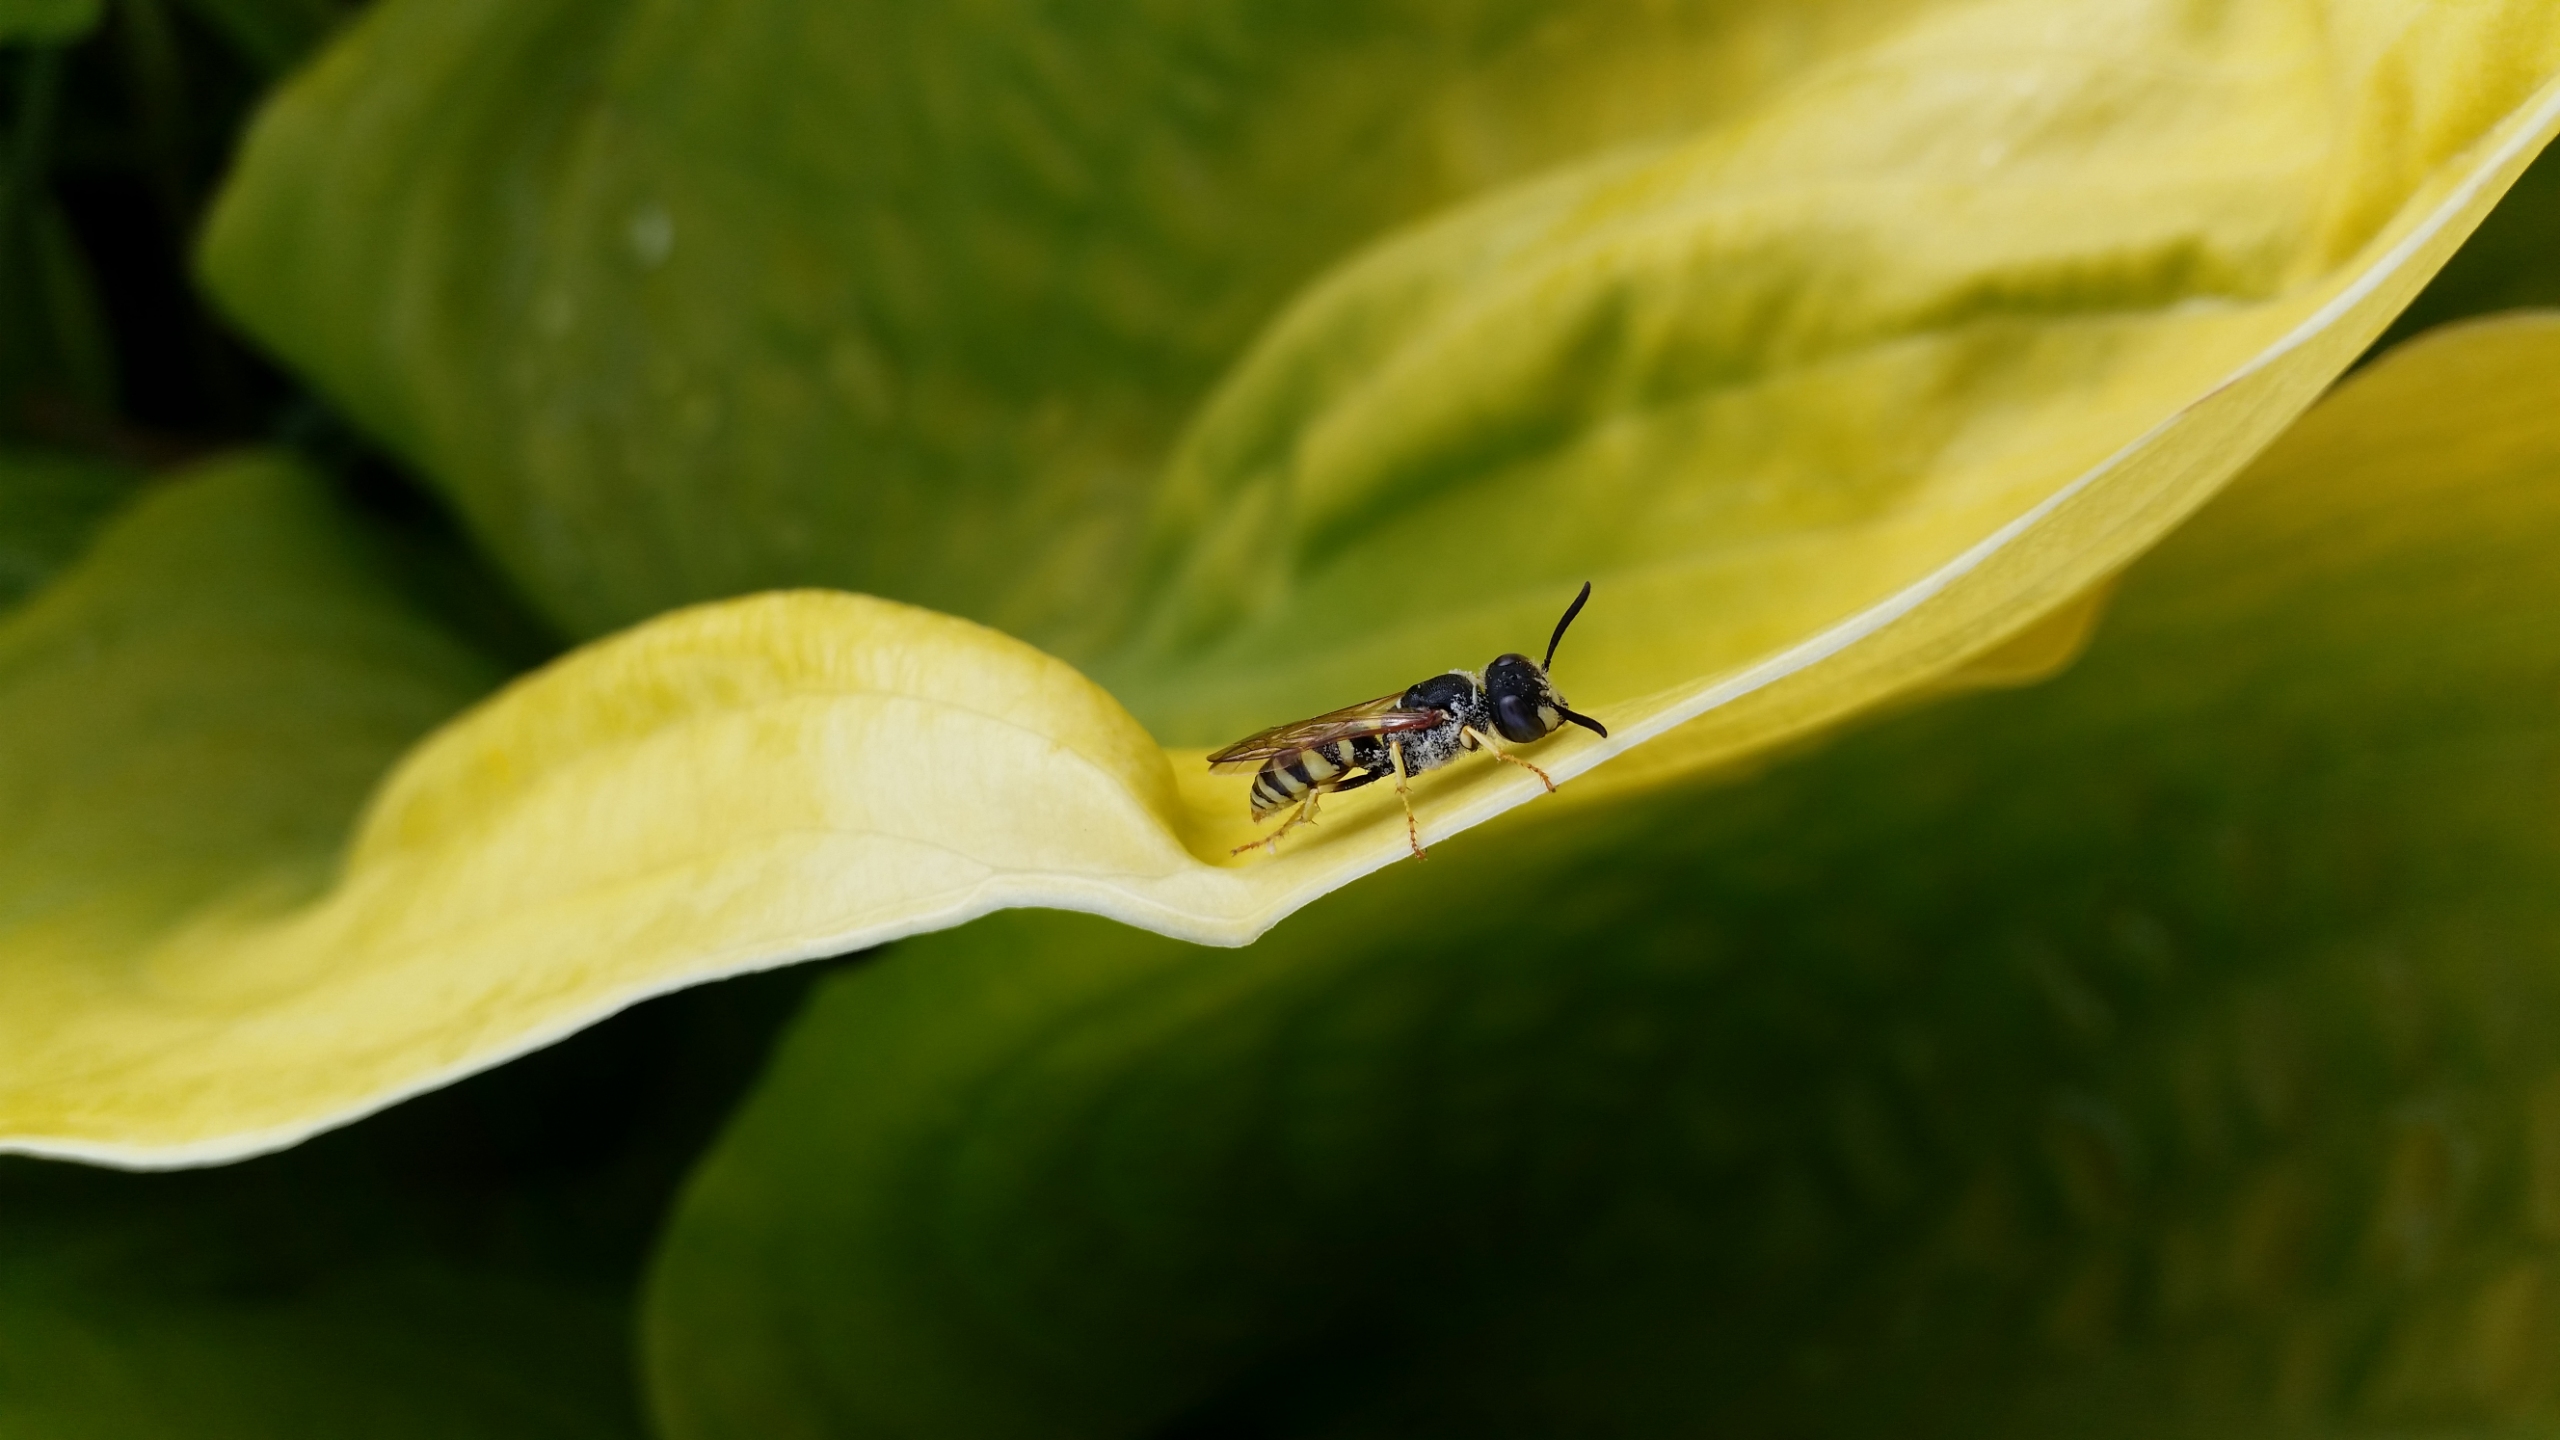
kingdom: Animalia
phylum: Arthropoda
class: Insecta
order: Hymenoptera
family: Crabronidae
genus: Philanthus
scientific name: Philanthus triangulum
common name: Biulv
